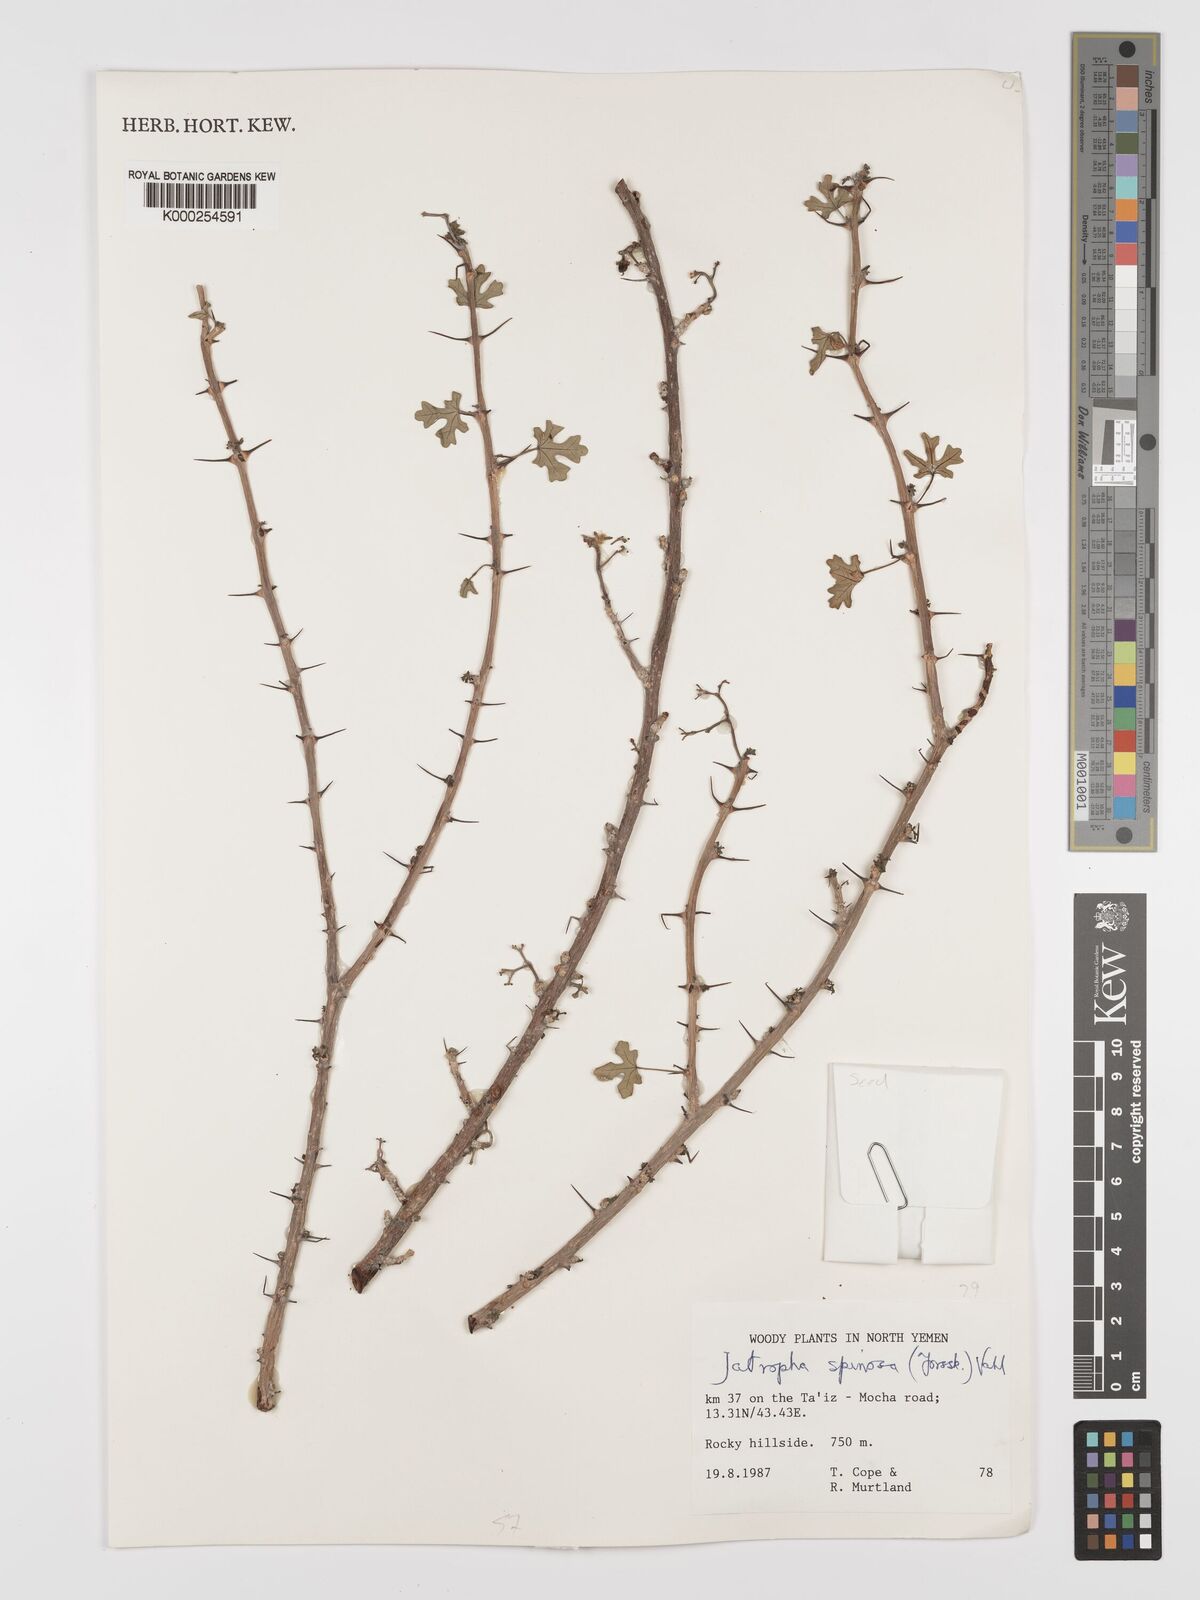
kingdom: Plantae
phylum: Tracheophyta
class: Magnoliopsida
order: Malpighiales
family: Euphorbiaceae
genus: Jatropha
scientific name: Jatropha spinosa
